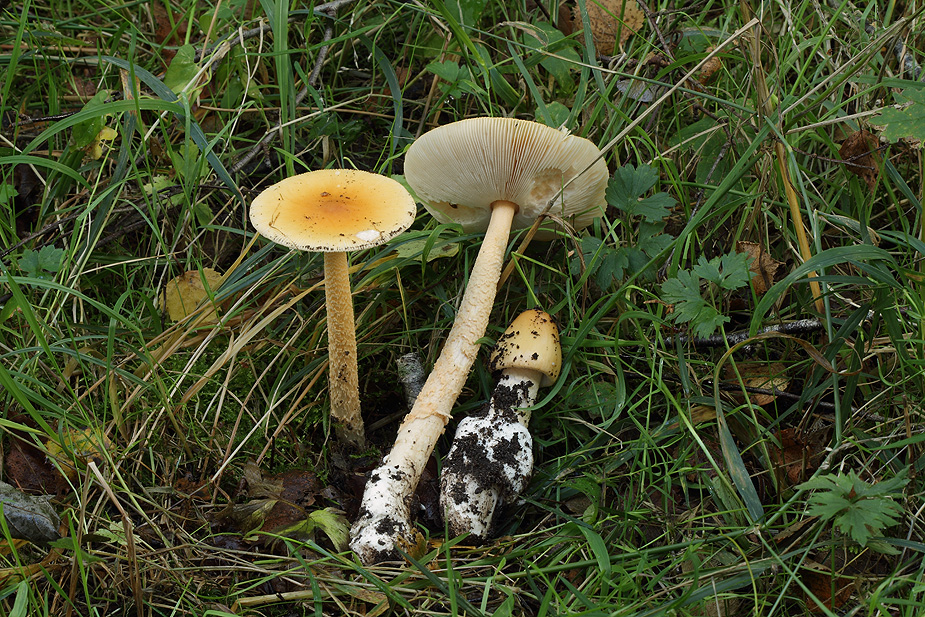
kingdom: Fungi
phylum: Basidiomycota
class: Agaricomycetes
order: Agaricales
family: Amanitaceae
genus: Amanita
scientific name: Amanita crocea
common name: gylden kam-fluesvamp
